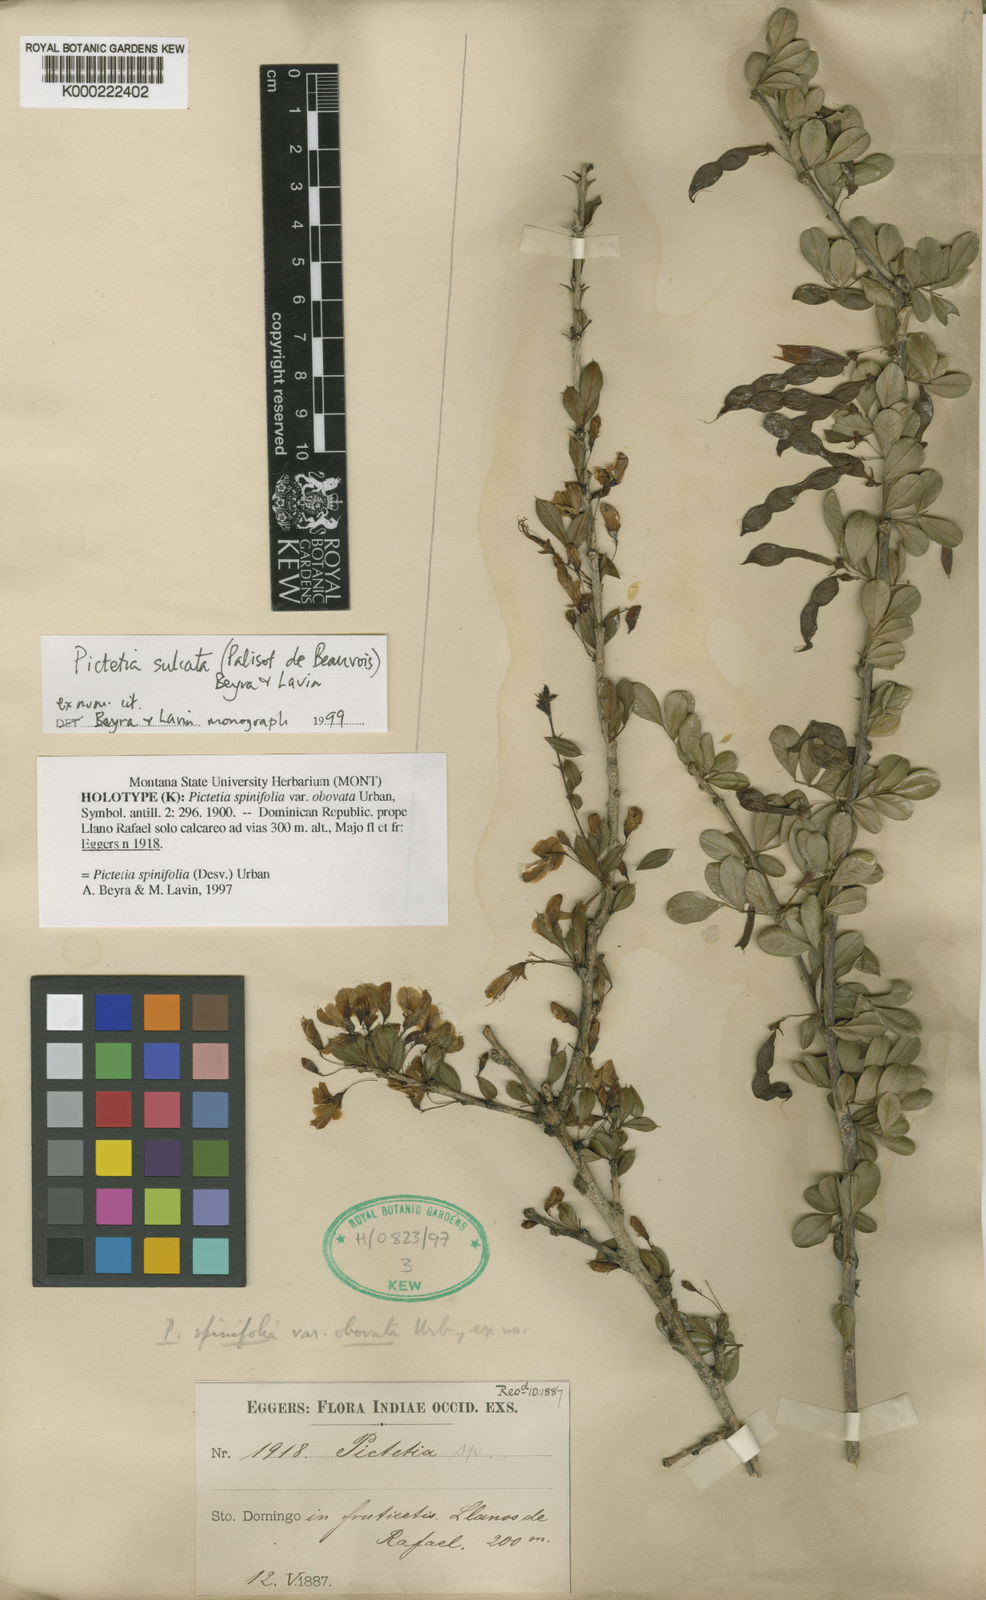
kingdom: Plantae
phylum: Tracheophyta
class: Magnoliopsida
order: Fabales
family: Fabaceae
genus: Pictetia
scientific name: Pictetia sulcata
